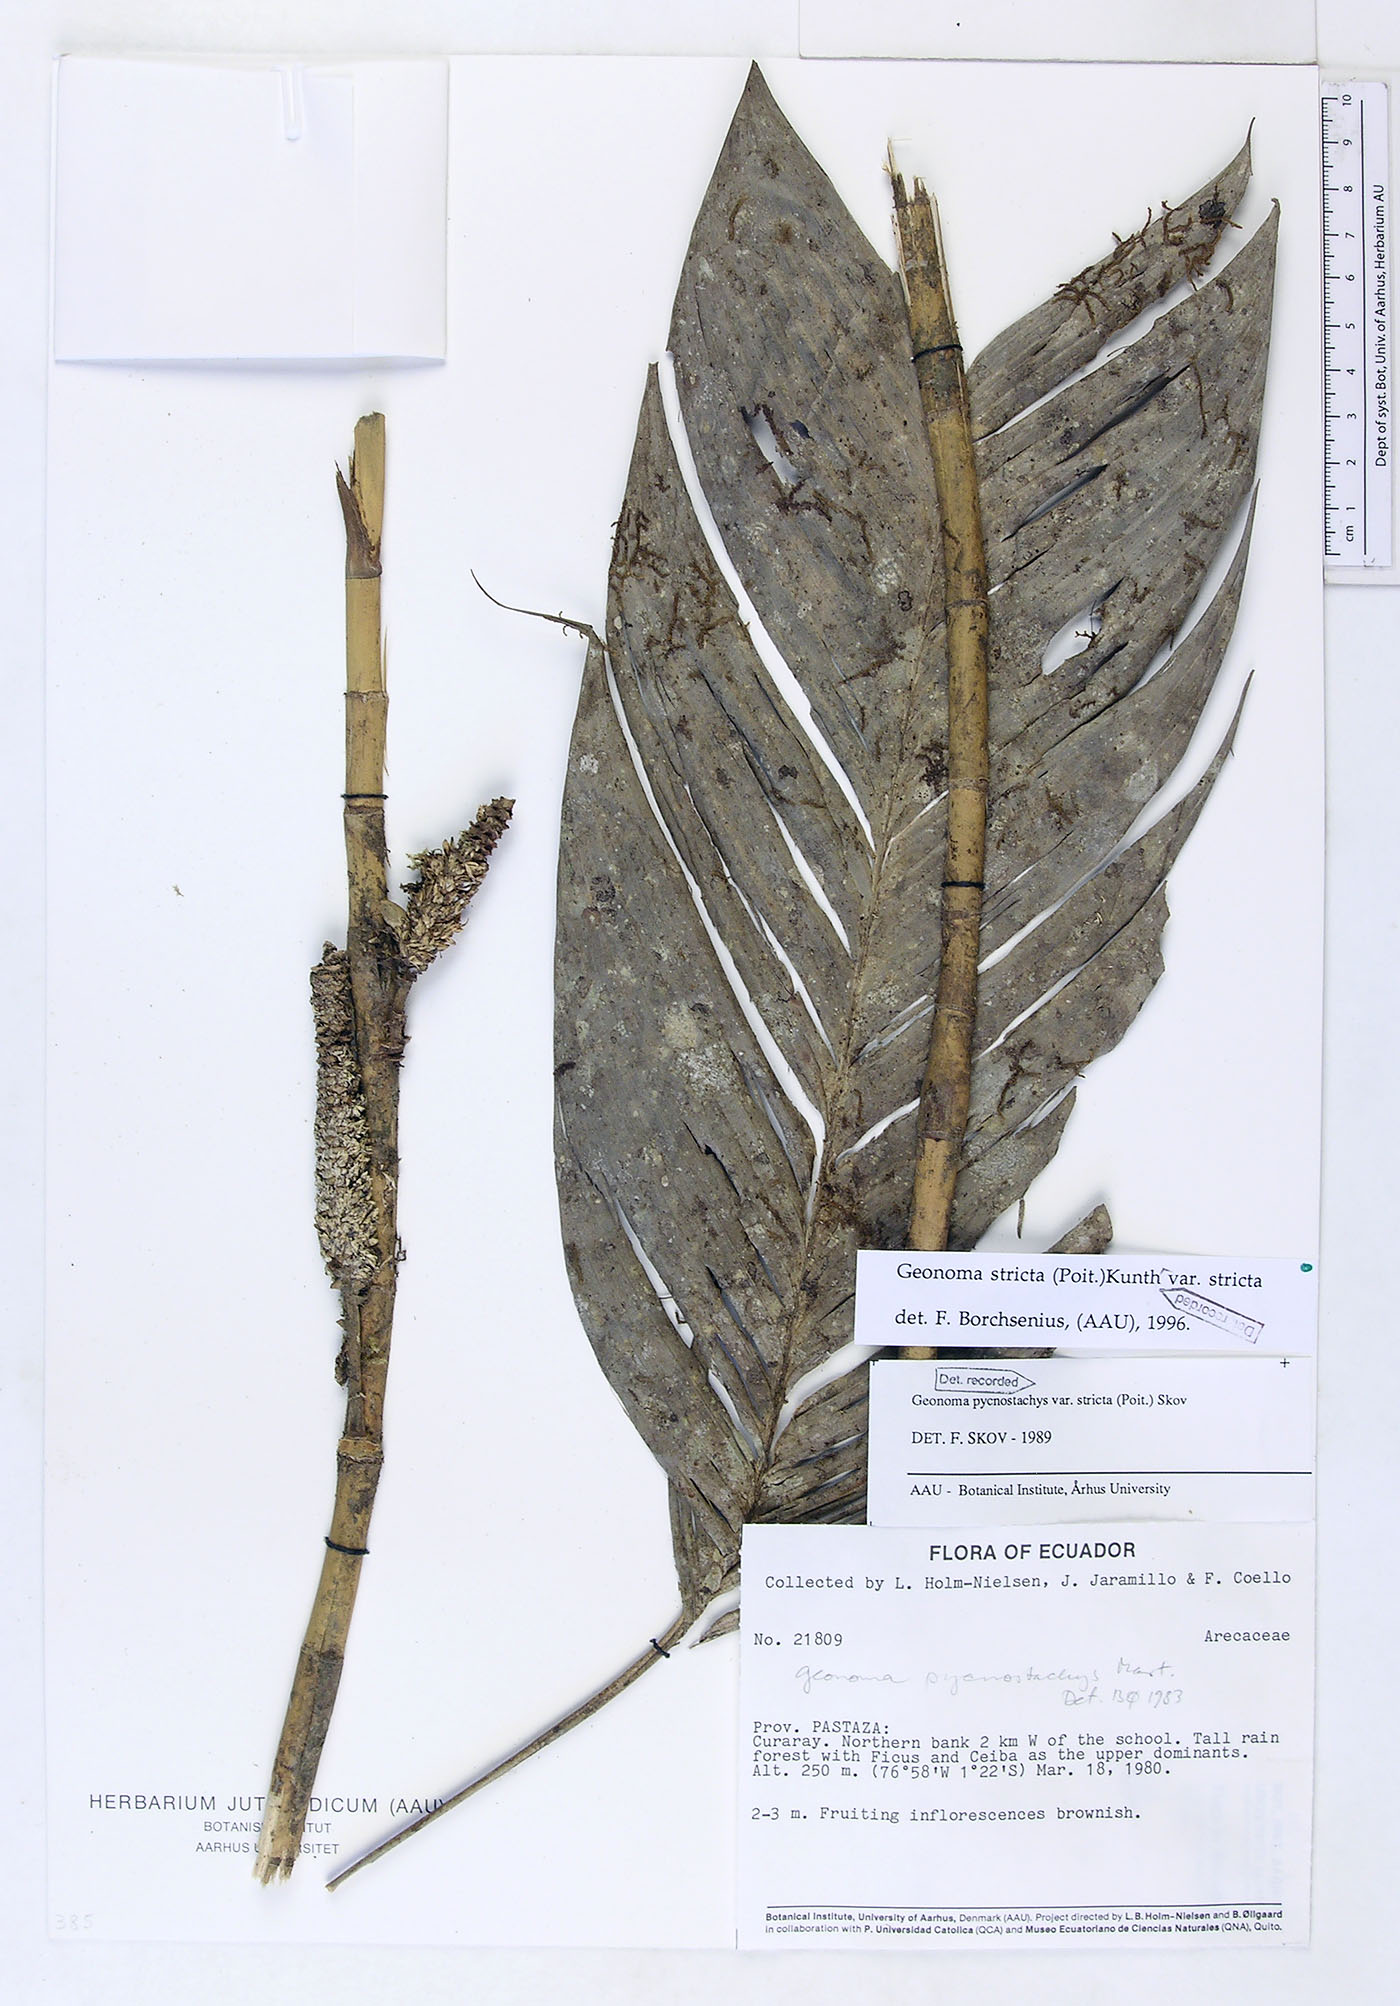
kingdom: Plantae
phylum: Tracheophyta
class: Liliopsida
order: Arecales
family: Arecaceae
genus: Geonoma
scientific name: Geonoma stricta
